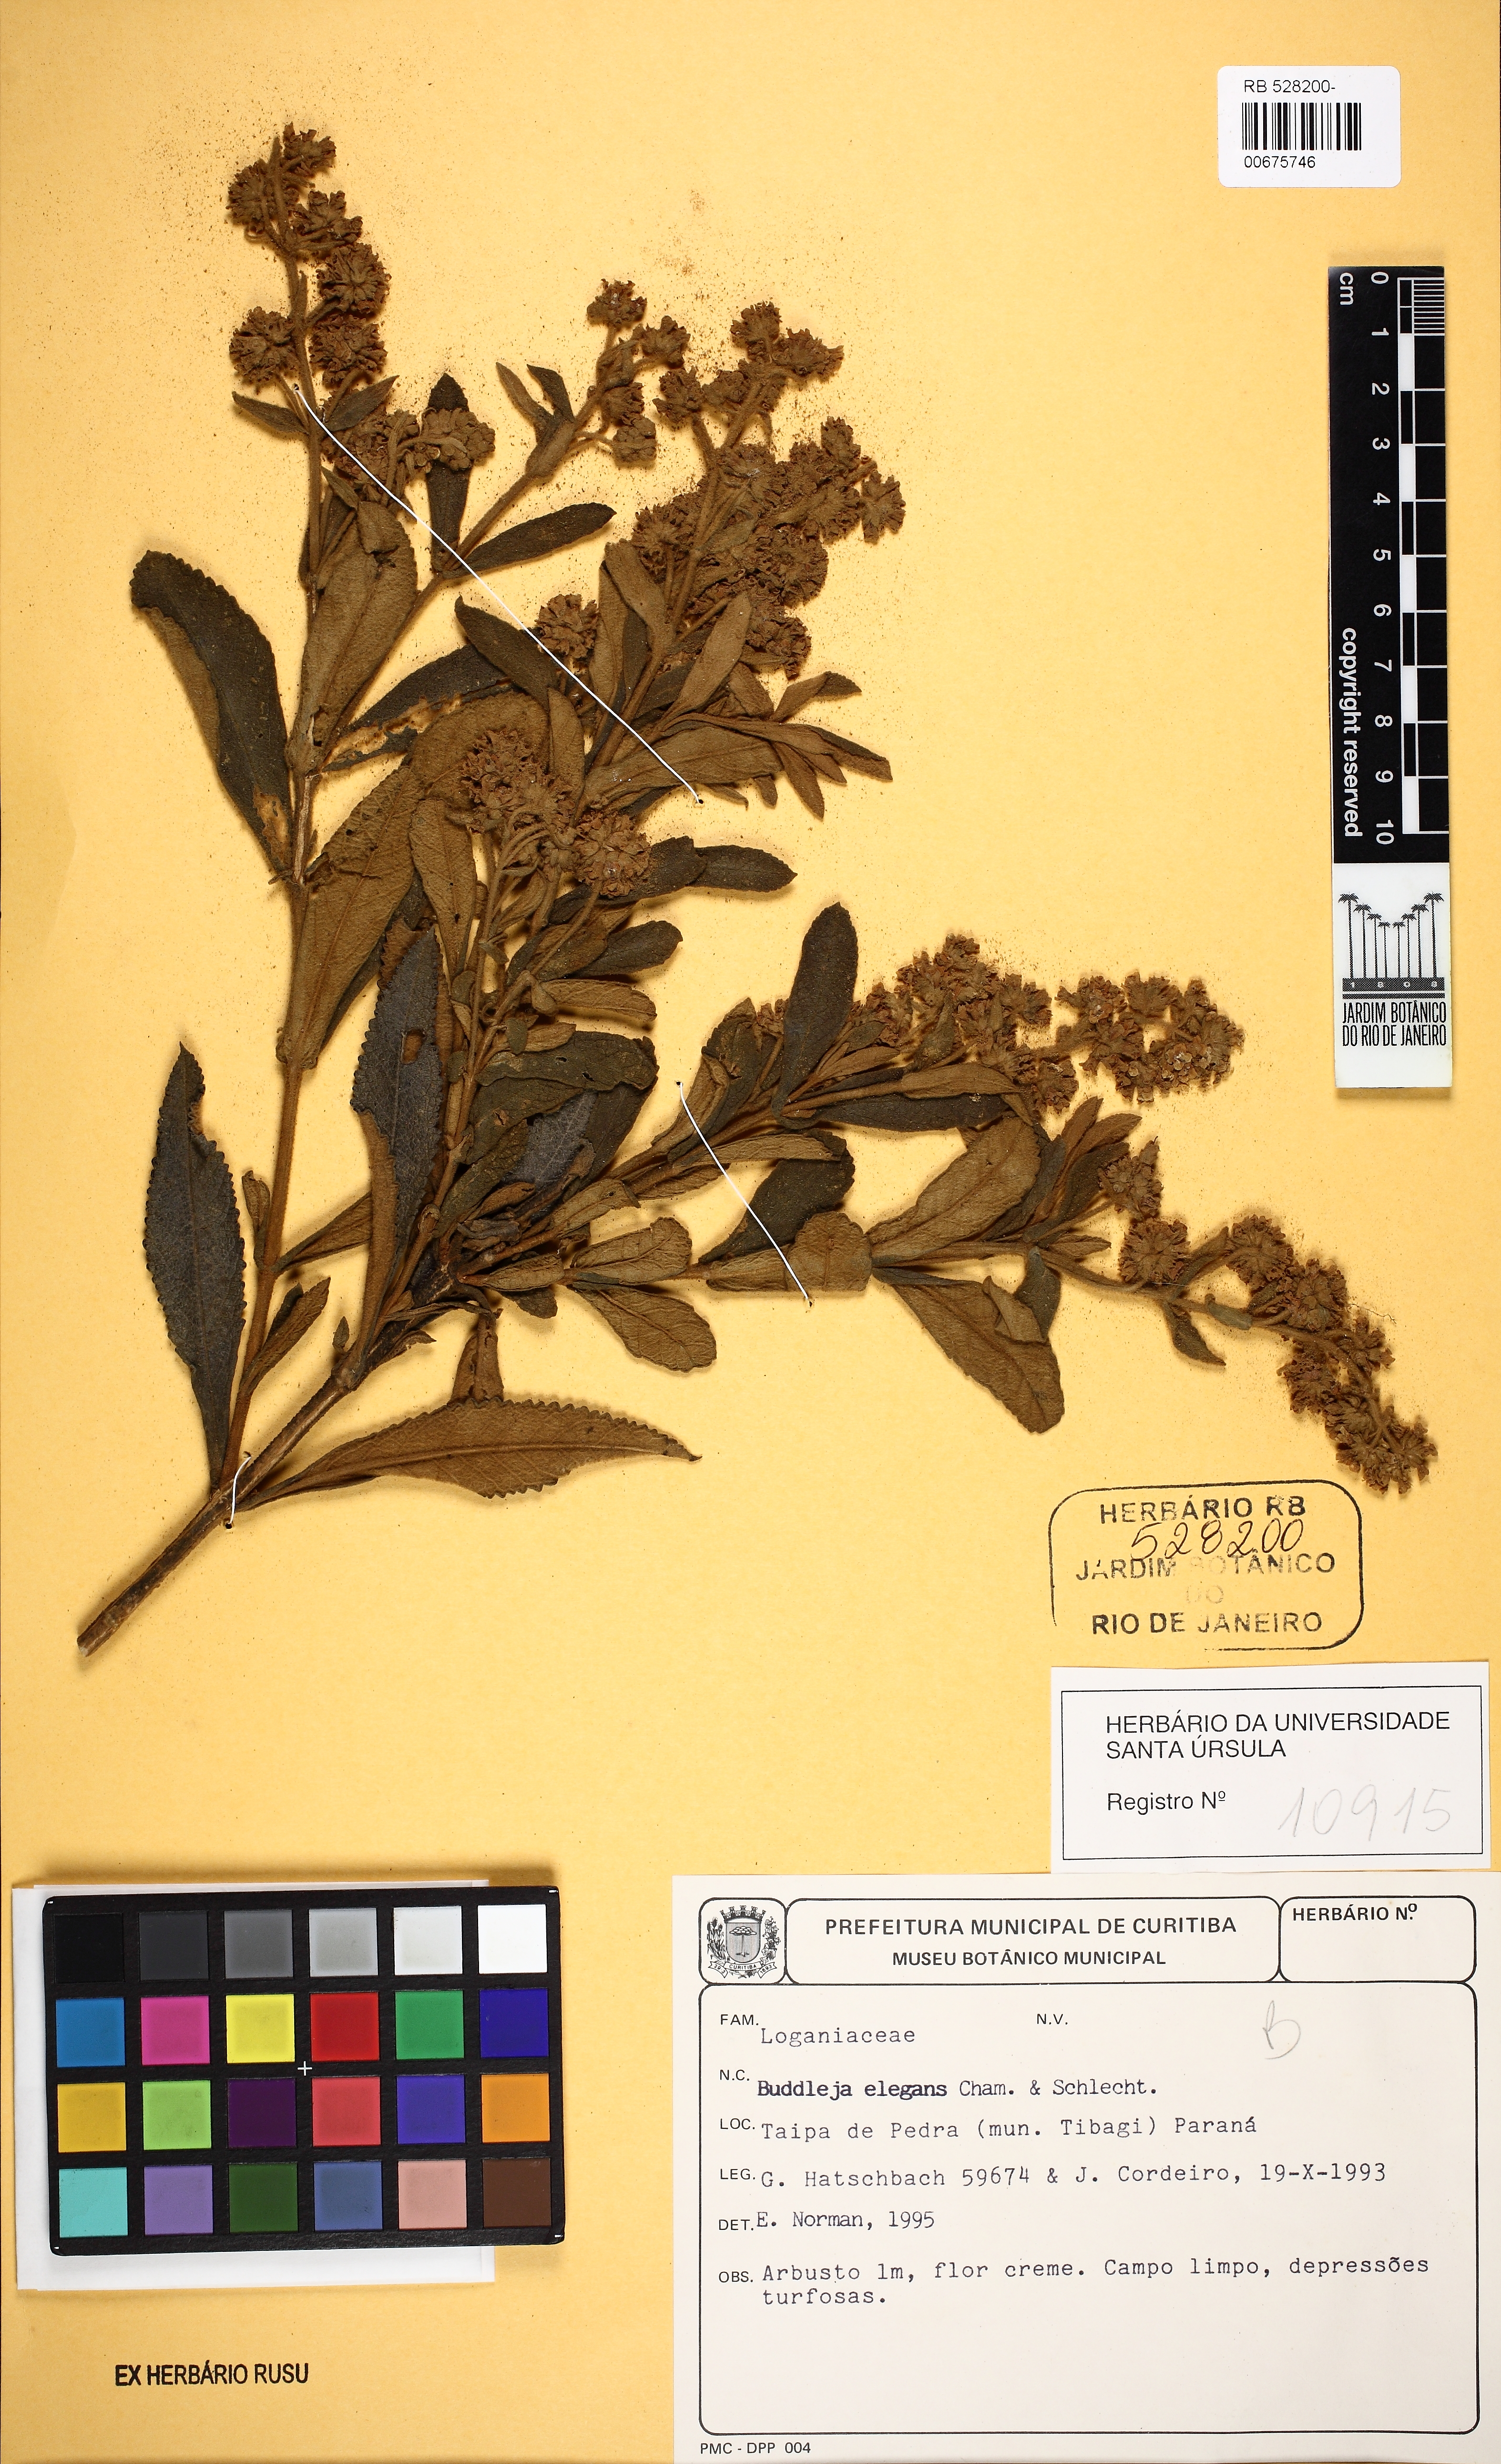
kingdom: Plantae
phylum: Tracheophyta
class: Magnoliopsida
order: Lamiales
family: Scrophulariaceae
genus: Buddleja
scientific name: Buddleja elegans
